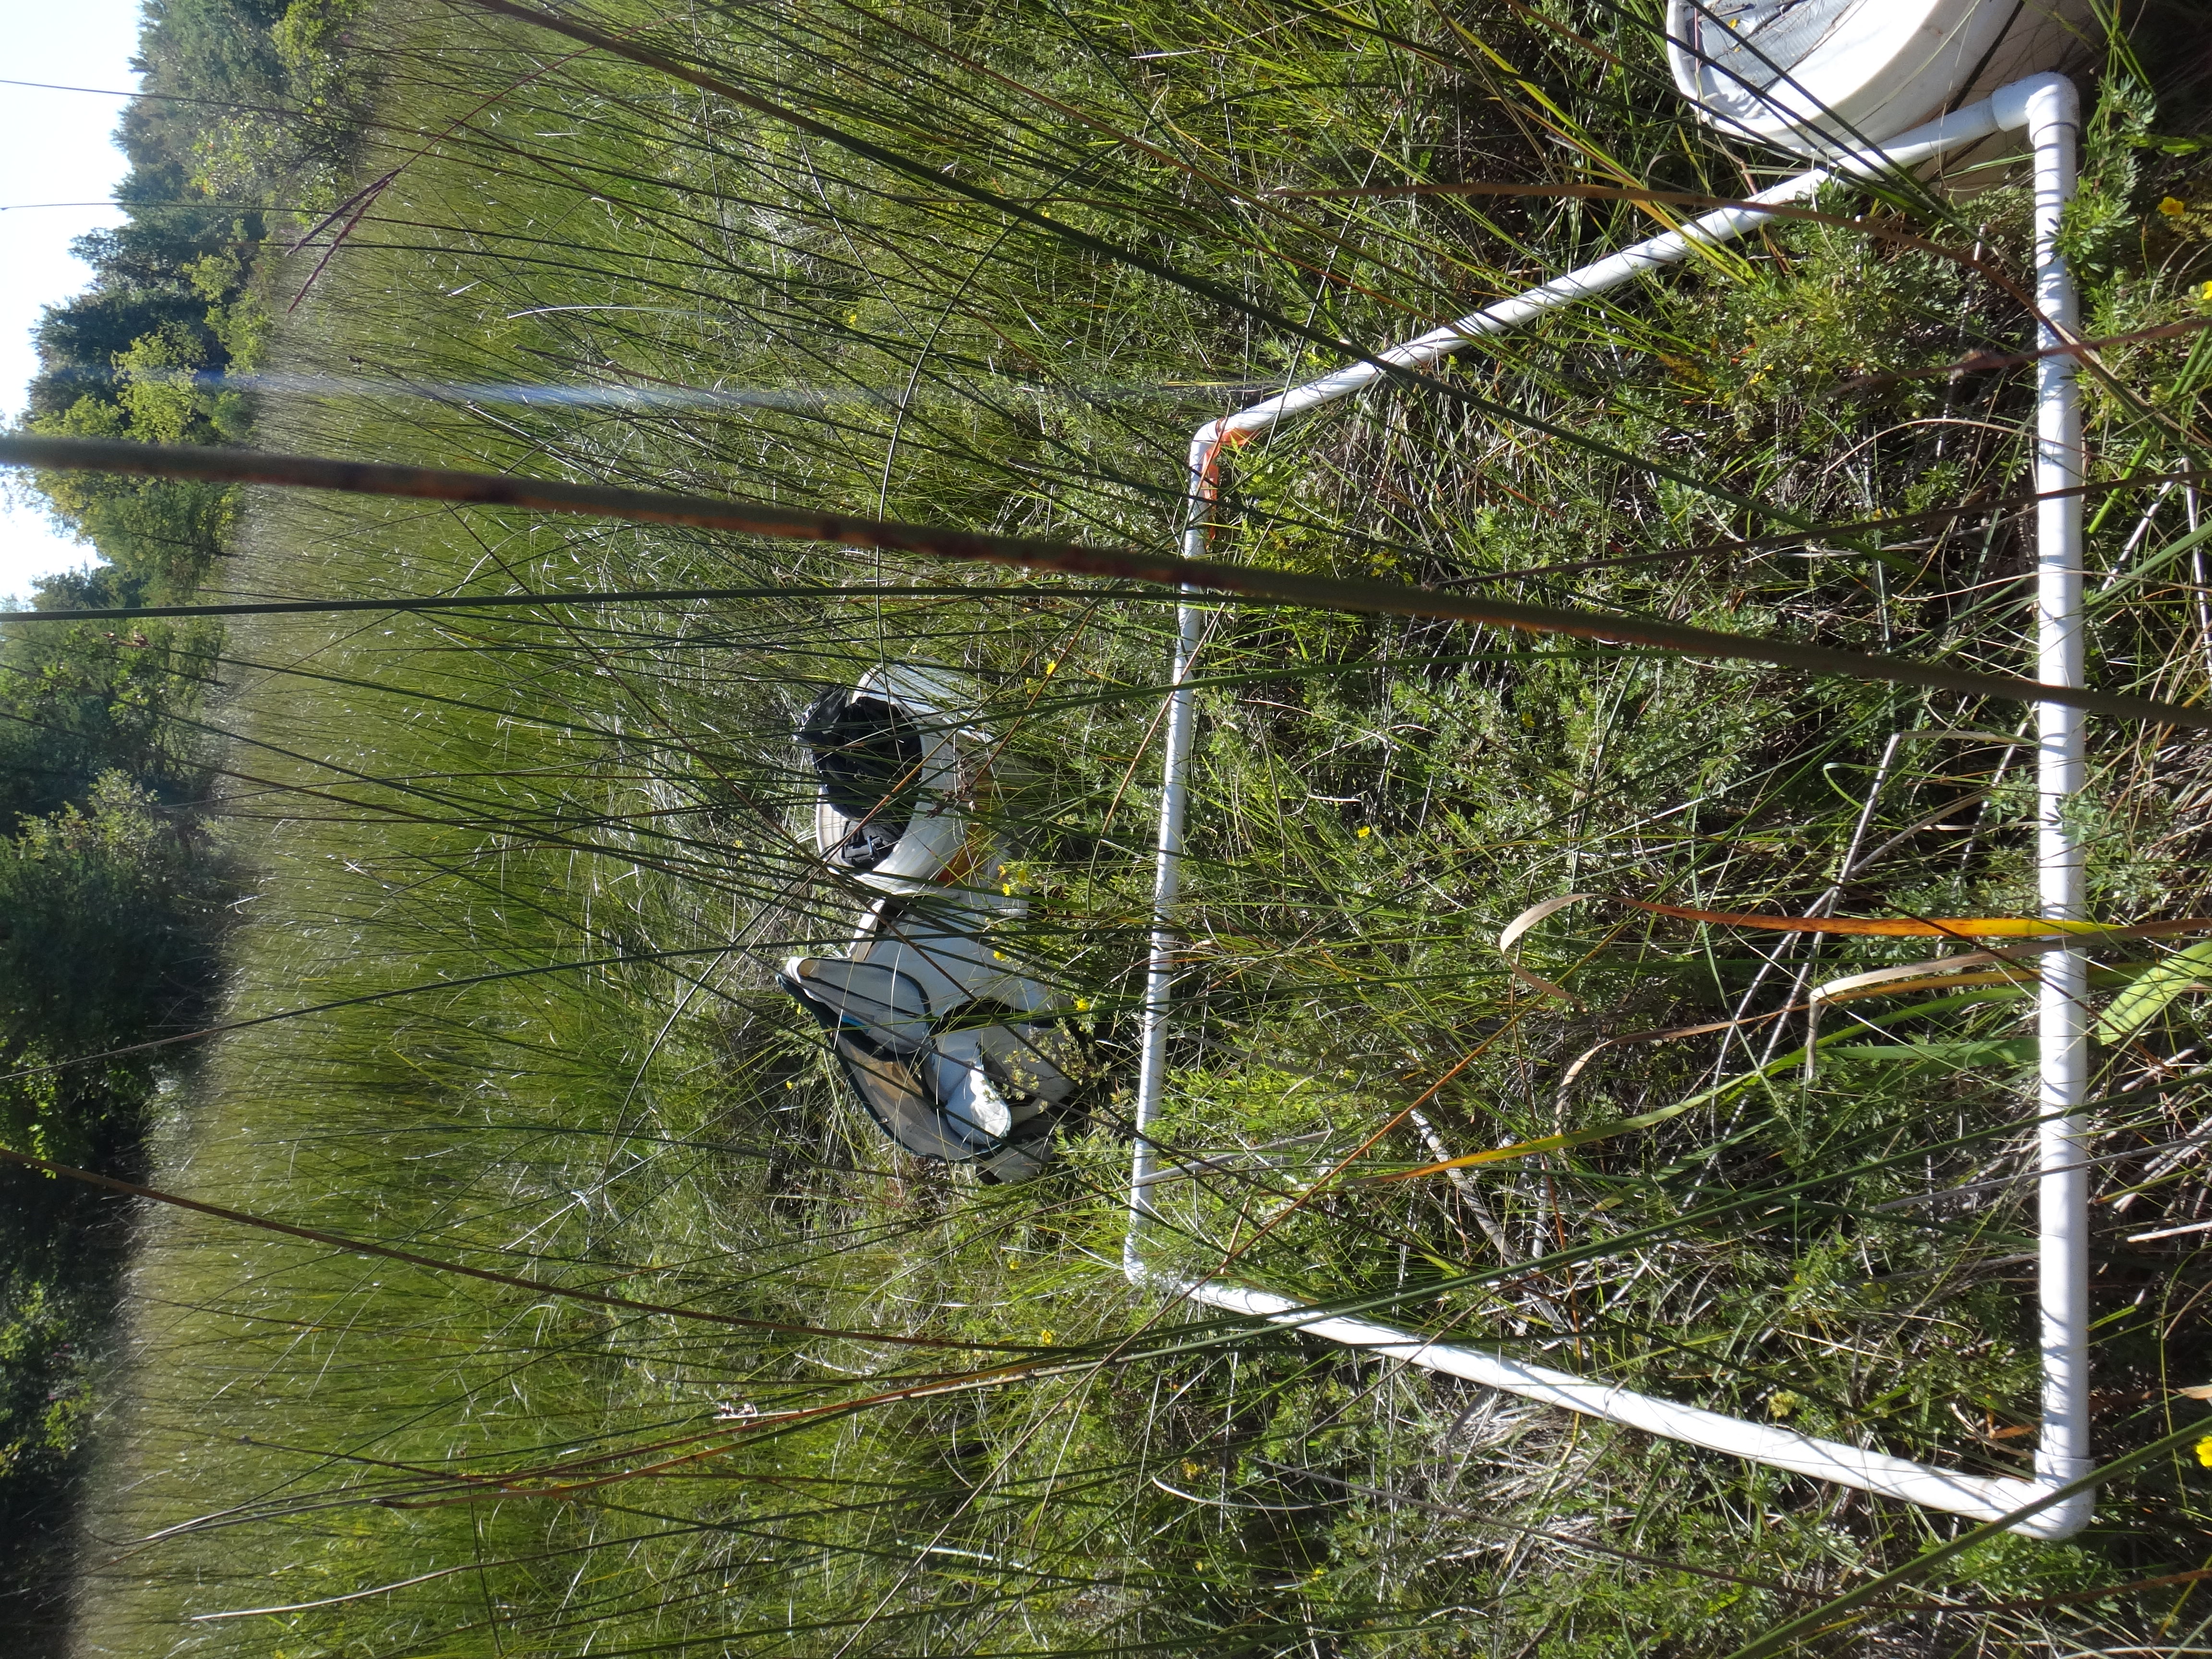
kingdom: Plantae
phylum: Tracheophyta
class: Liliopsida
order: Poales
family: Cyperaceae
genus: Carex
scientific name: Carex aquatilis
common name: Water sedge
